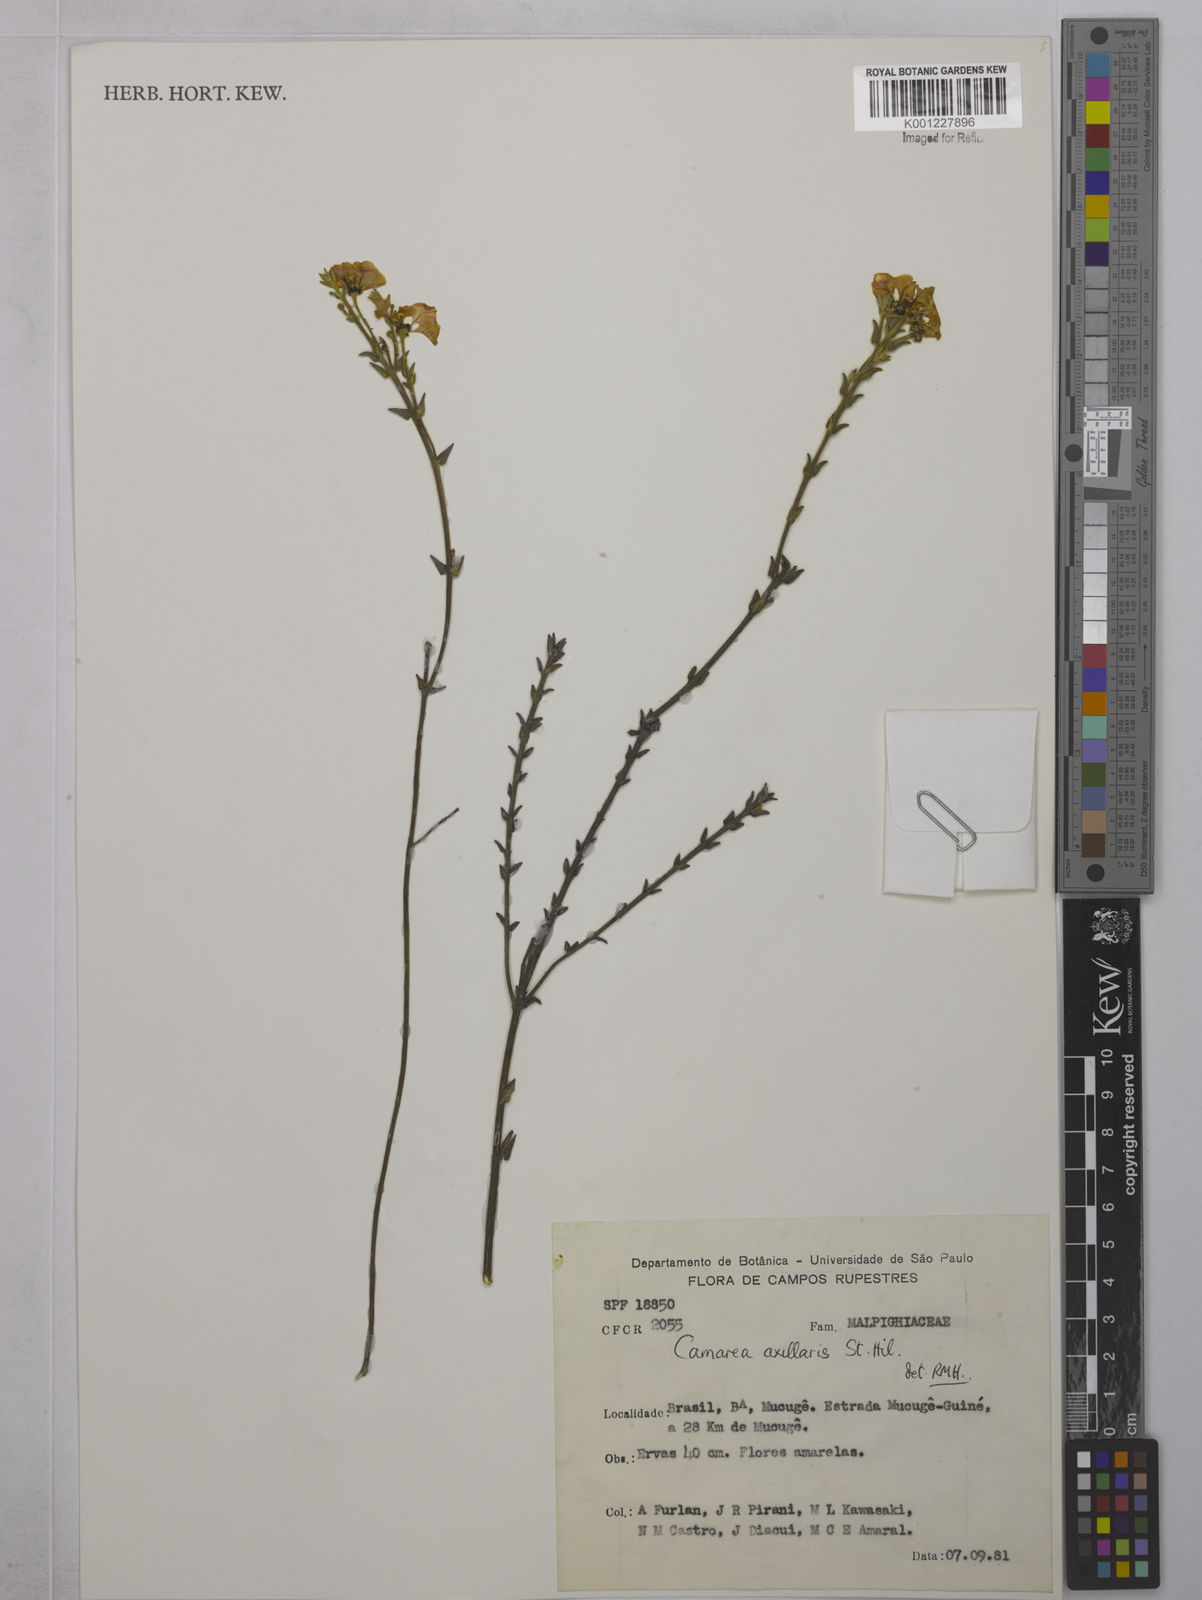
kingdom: Plantae
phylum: Tracheophyta
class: Magnoliopsida
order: Malpighiales
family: Malpighiaceae
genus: Camarea
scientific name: Camarea axillaris
